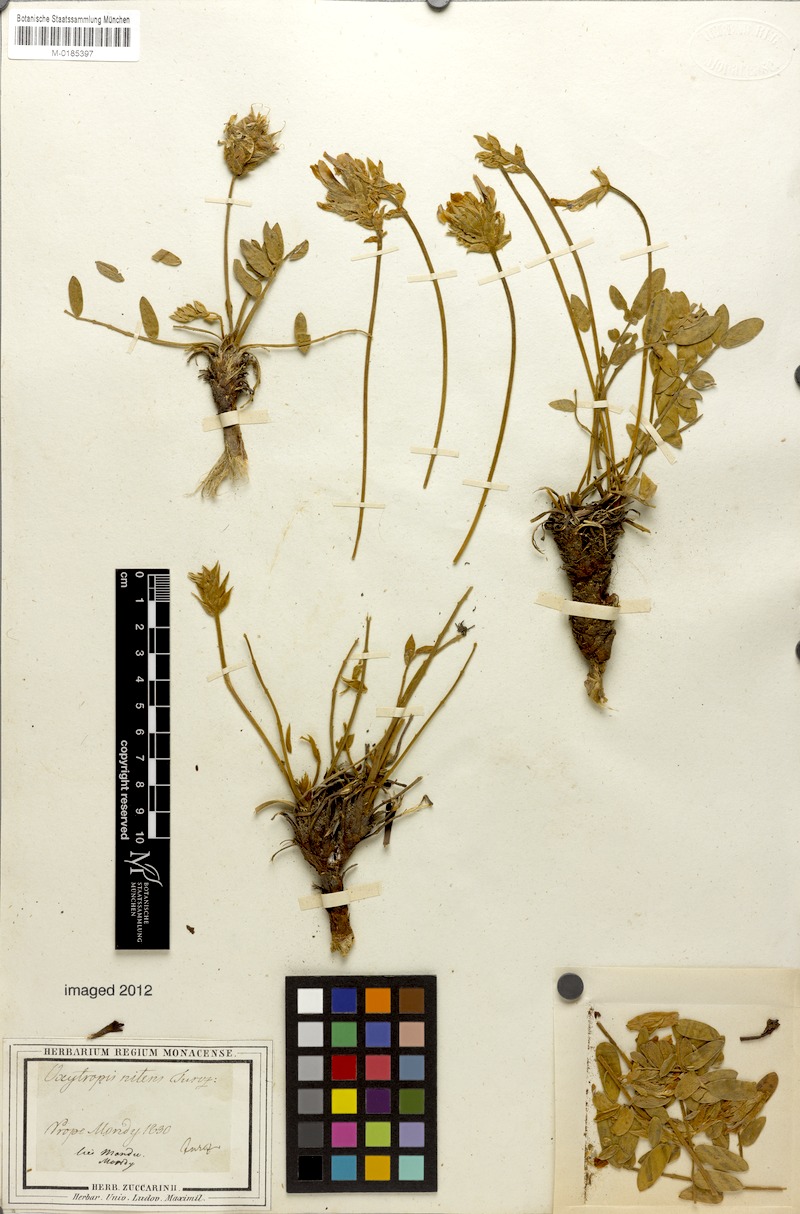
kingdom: Plantae
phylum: Tracheophyta
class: Magnoliopsida
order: Fabales
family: Fabaceae
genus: Oxytropis
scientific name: Oxytropis nitens
